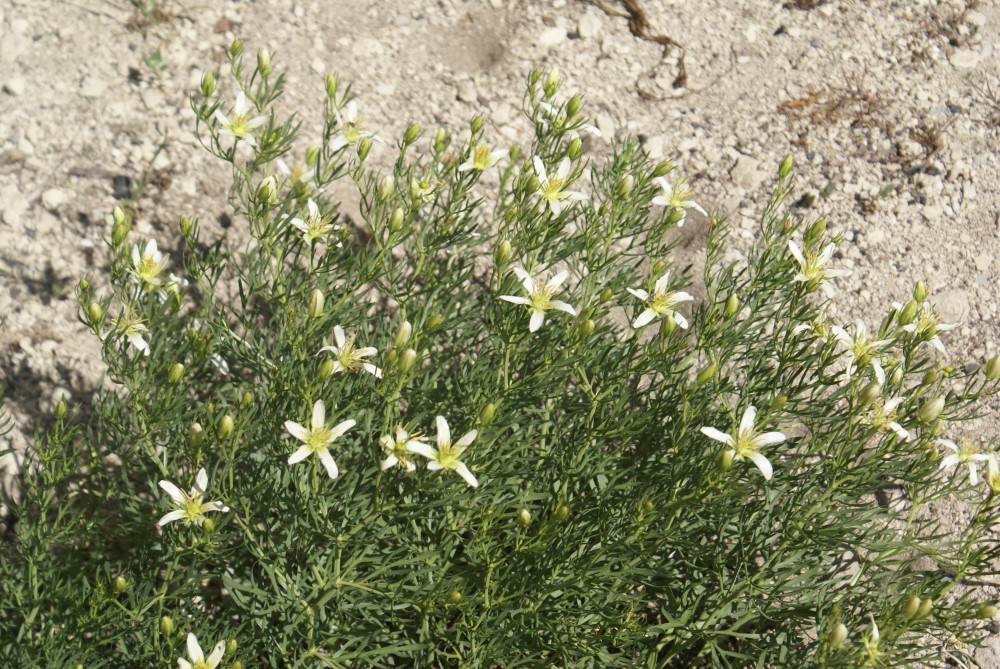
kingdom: Plantae
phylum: Tracheophyta
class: Magnoliopsida
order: Sapindales
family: Tetradiclidaceae
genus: Peganum
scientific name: Peganum harmala
